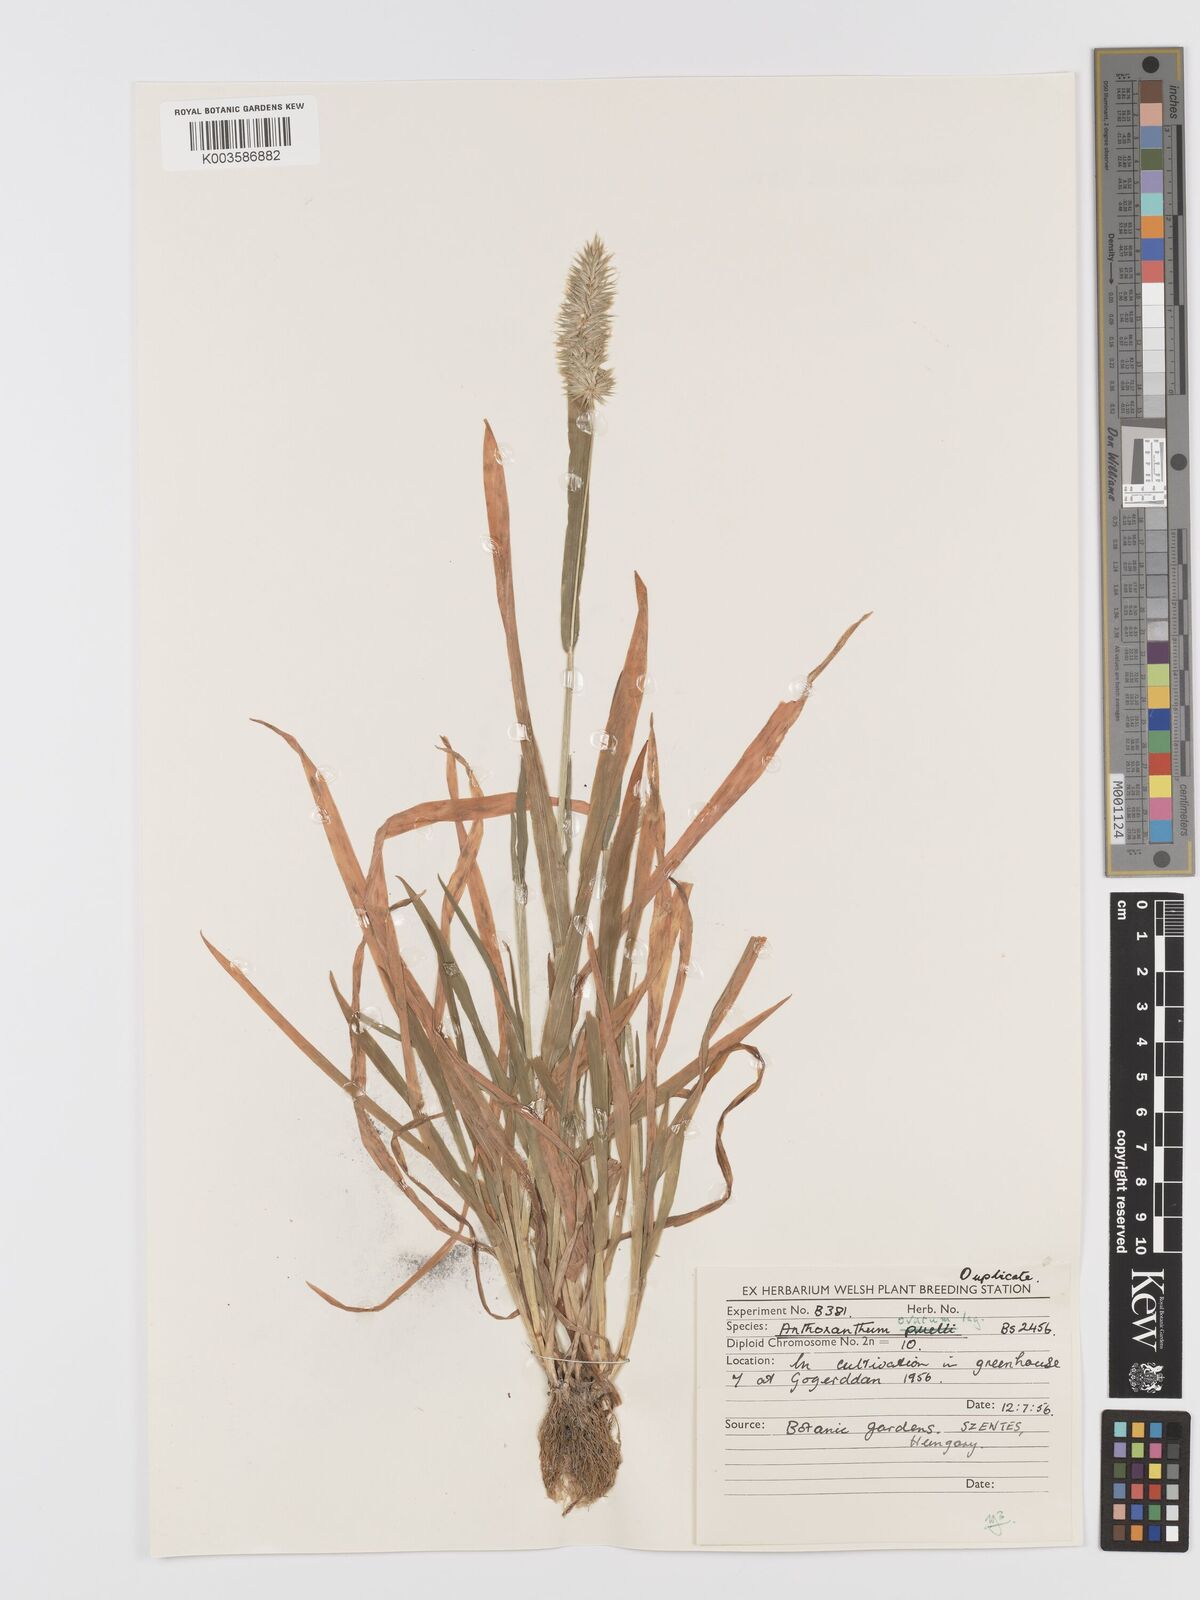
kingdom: Plantae
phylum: Tracheophyta
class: Liliopsida
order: Poales
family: Poaceae
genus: Anthoxanthum
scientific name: Anthoxanthum ovatum
